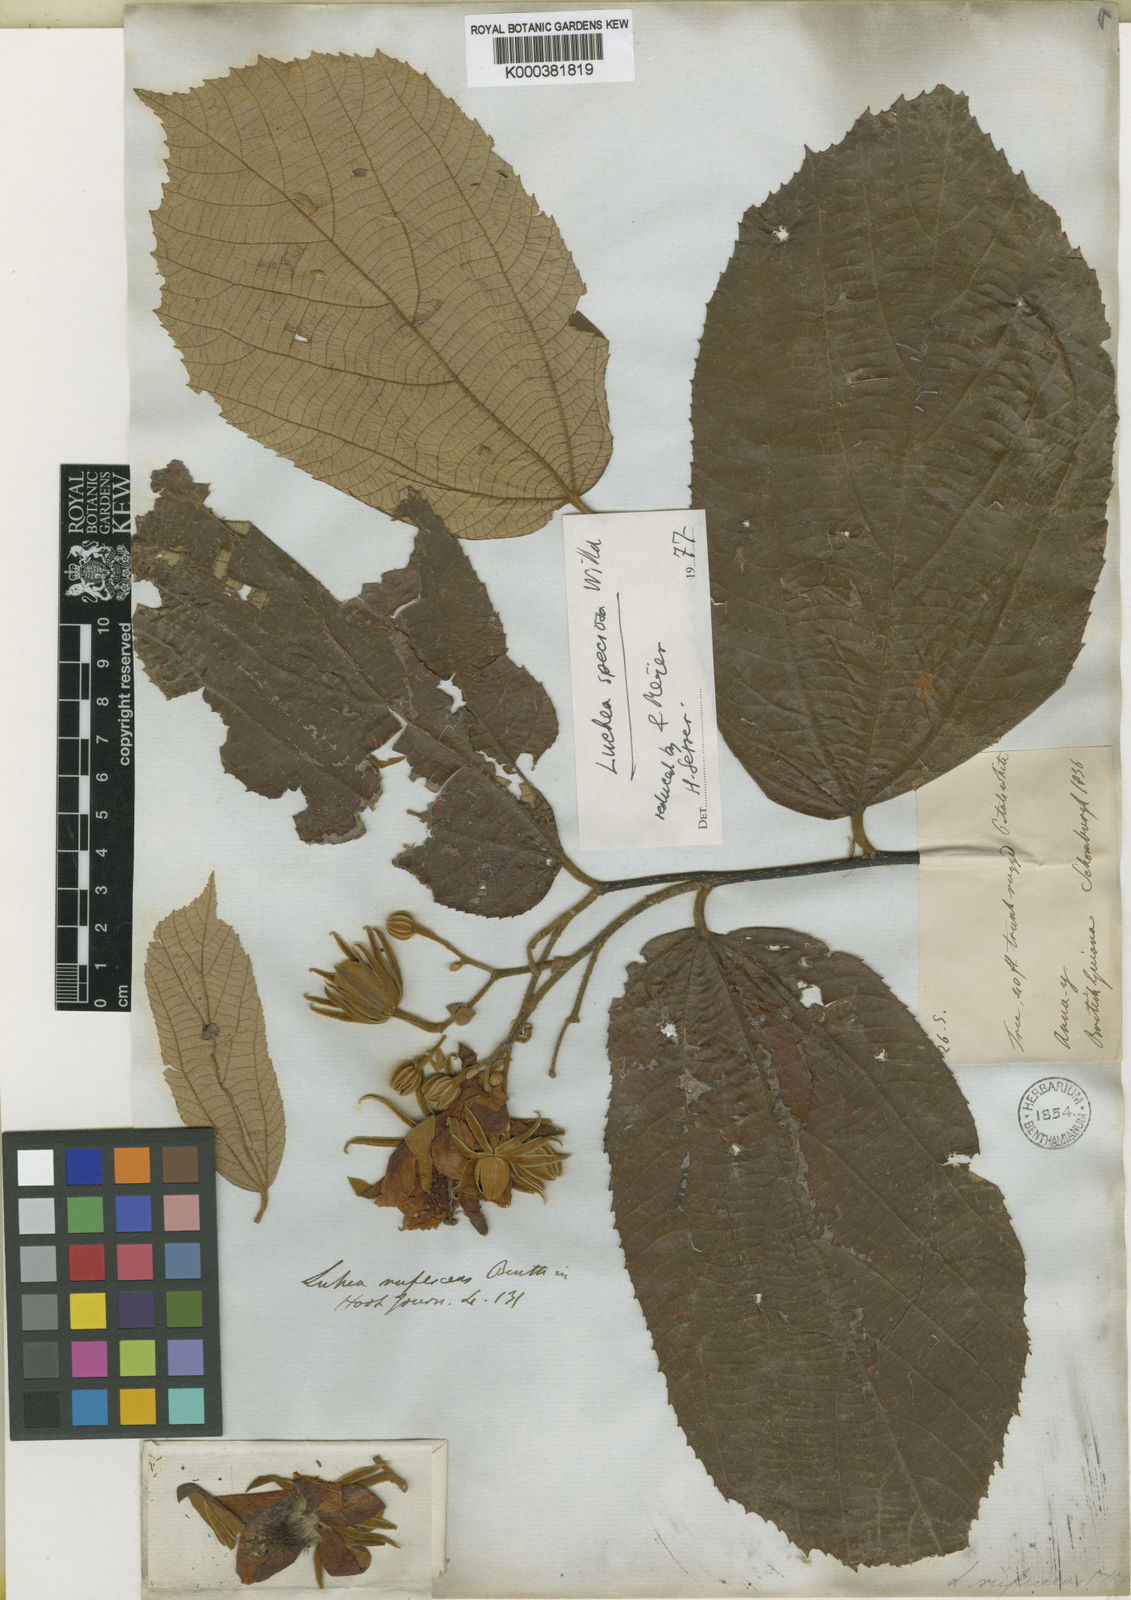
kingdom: Plantae
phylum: Tracheophyta
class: Magnoliopsida
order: Malvales
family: Malvaceae
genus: Luehea
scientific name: Luehea speciosa
